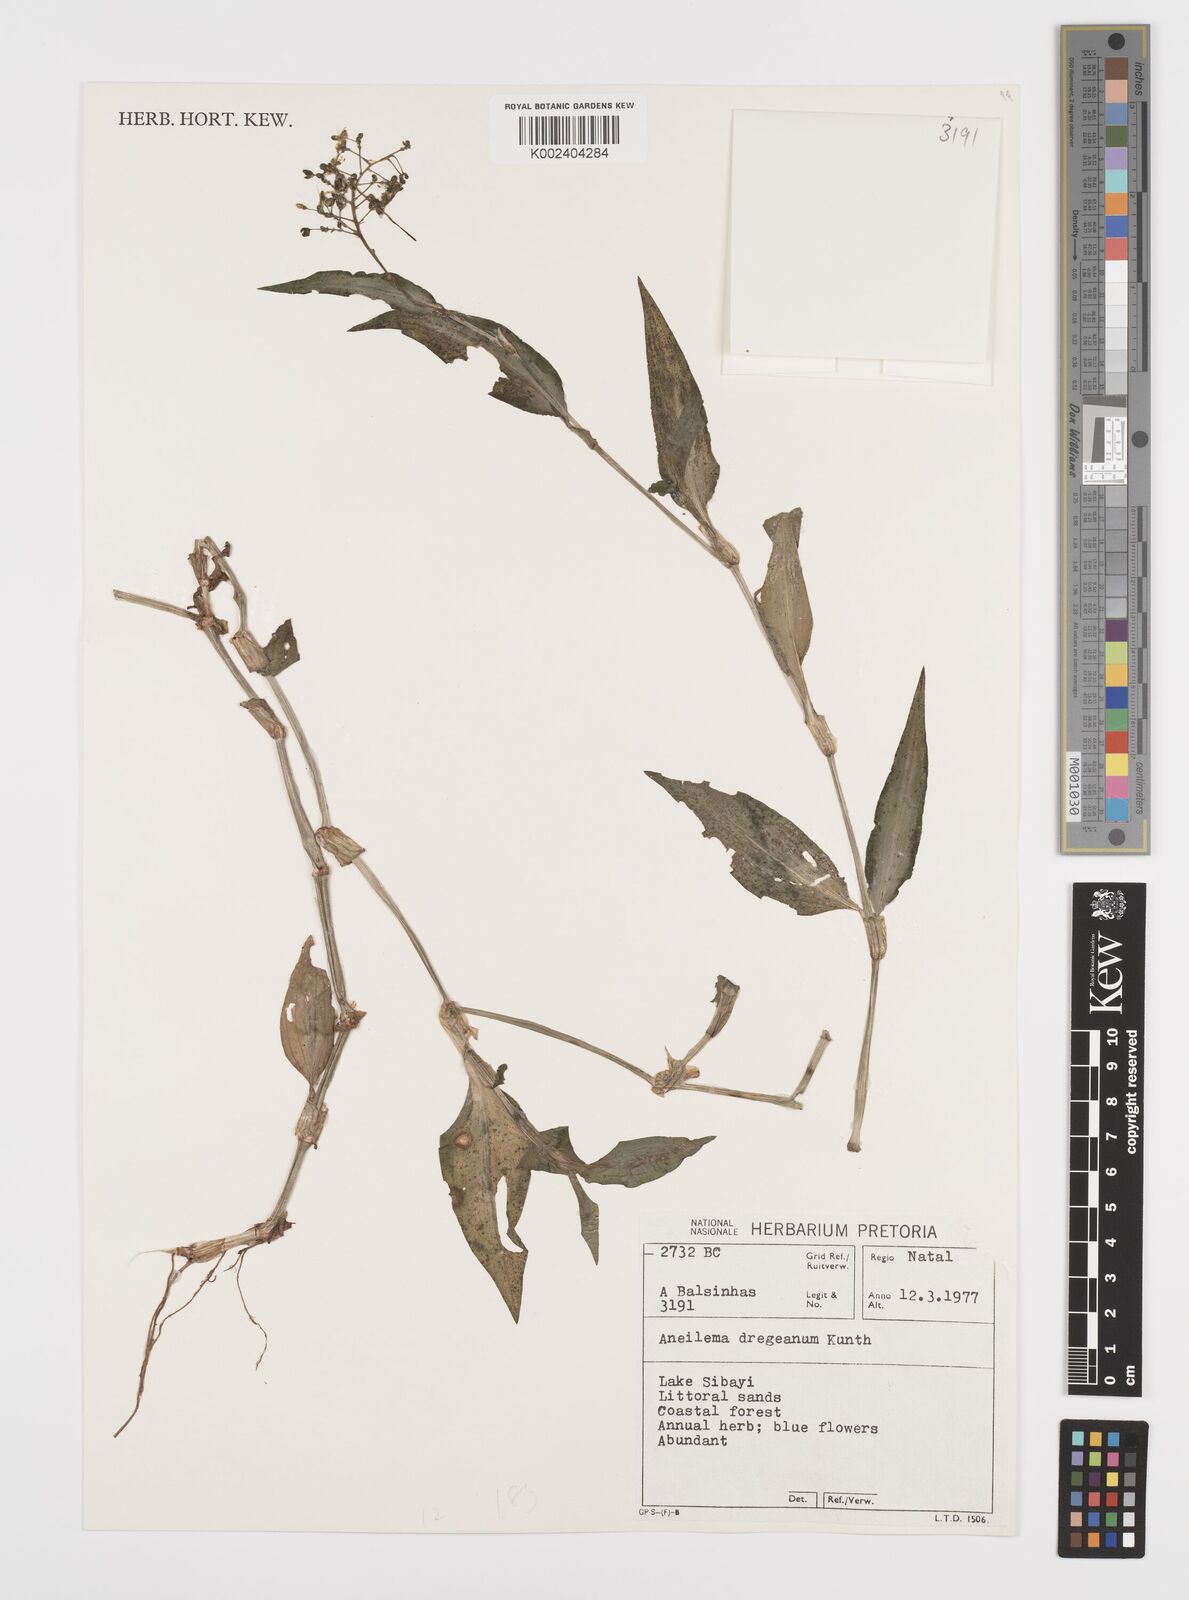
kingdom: Plantae
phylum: Tracheophyta
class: Liliopsida
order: Commelinales
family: Commelinaceae
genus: Aneilema
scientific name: Aneilema dregeanum
